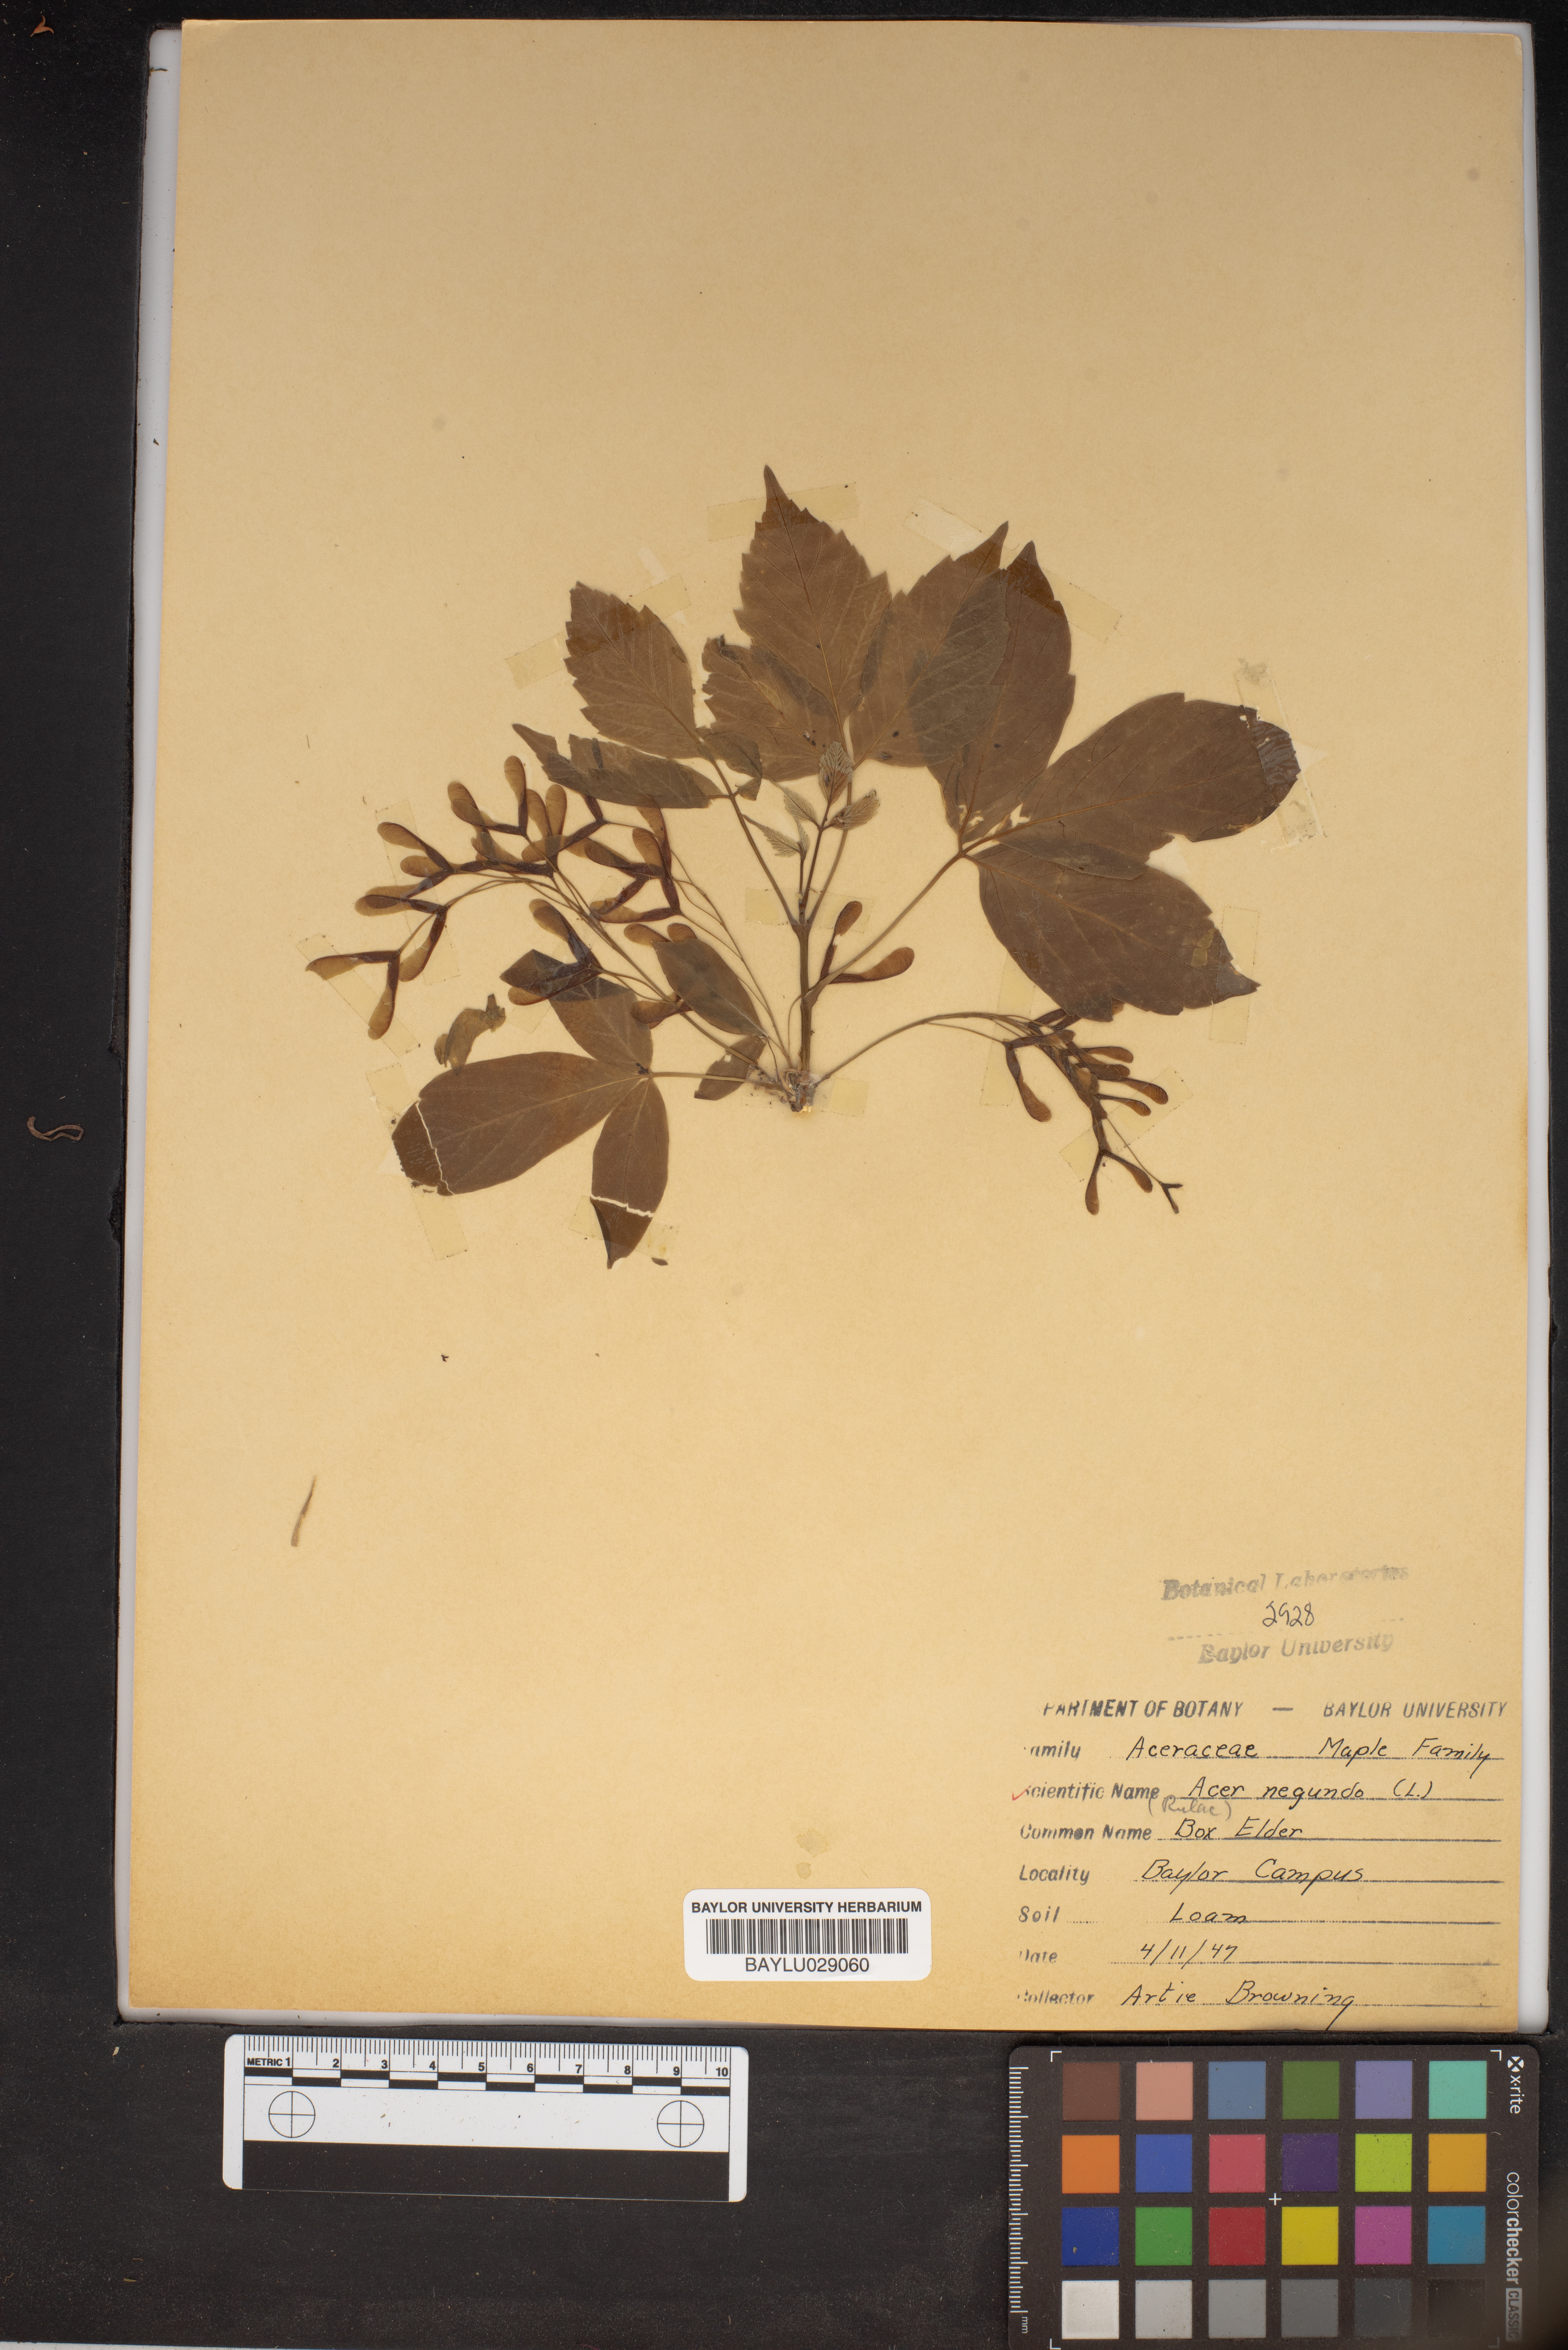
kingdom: Plantae
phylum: Tracheophyta
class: Magnoliopsida
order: Sapindales
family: Sapindaceae
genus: Acer
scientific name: Acer negundo
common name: Ashleaf maple
